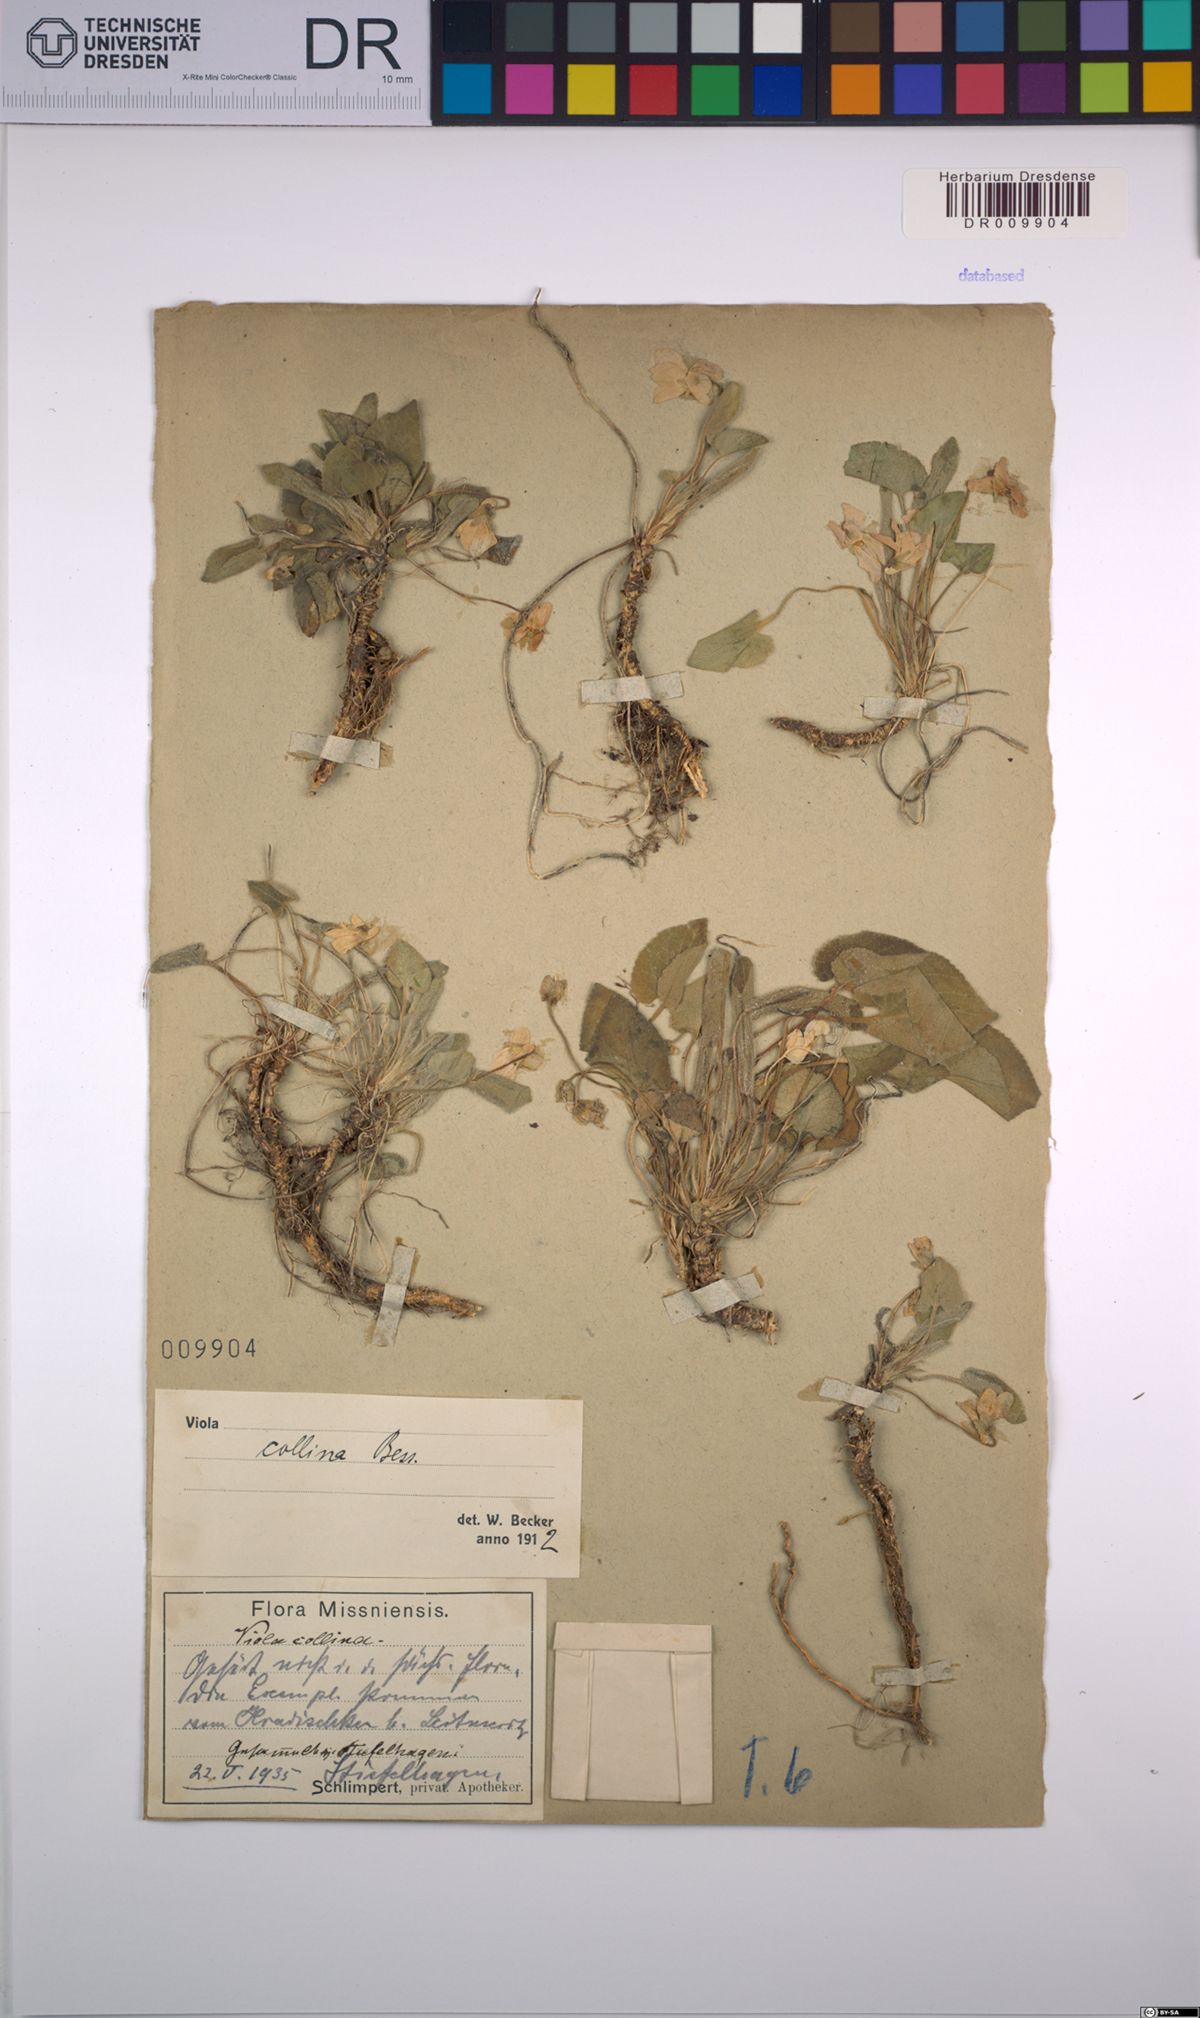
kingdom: Plantae
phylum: Tracheophyta
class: Magnoliopsida
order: Malpighiales
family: Violaceae
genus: Viola
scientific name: Viola collina
